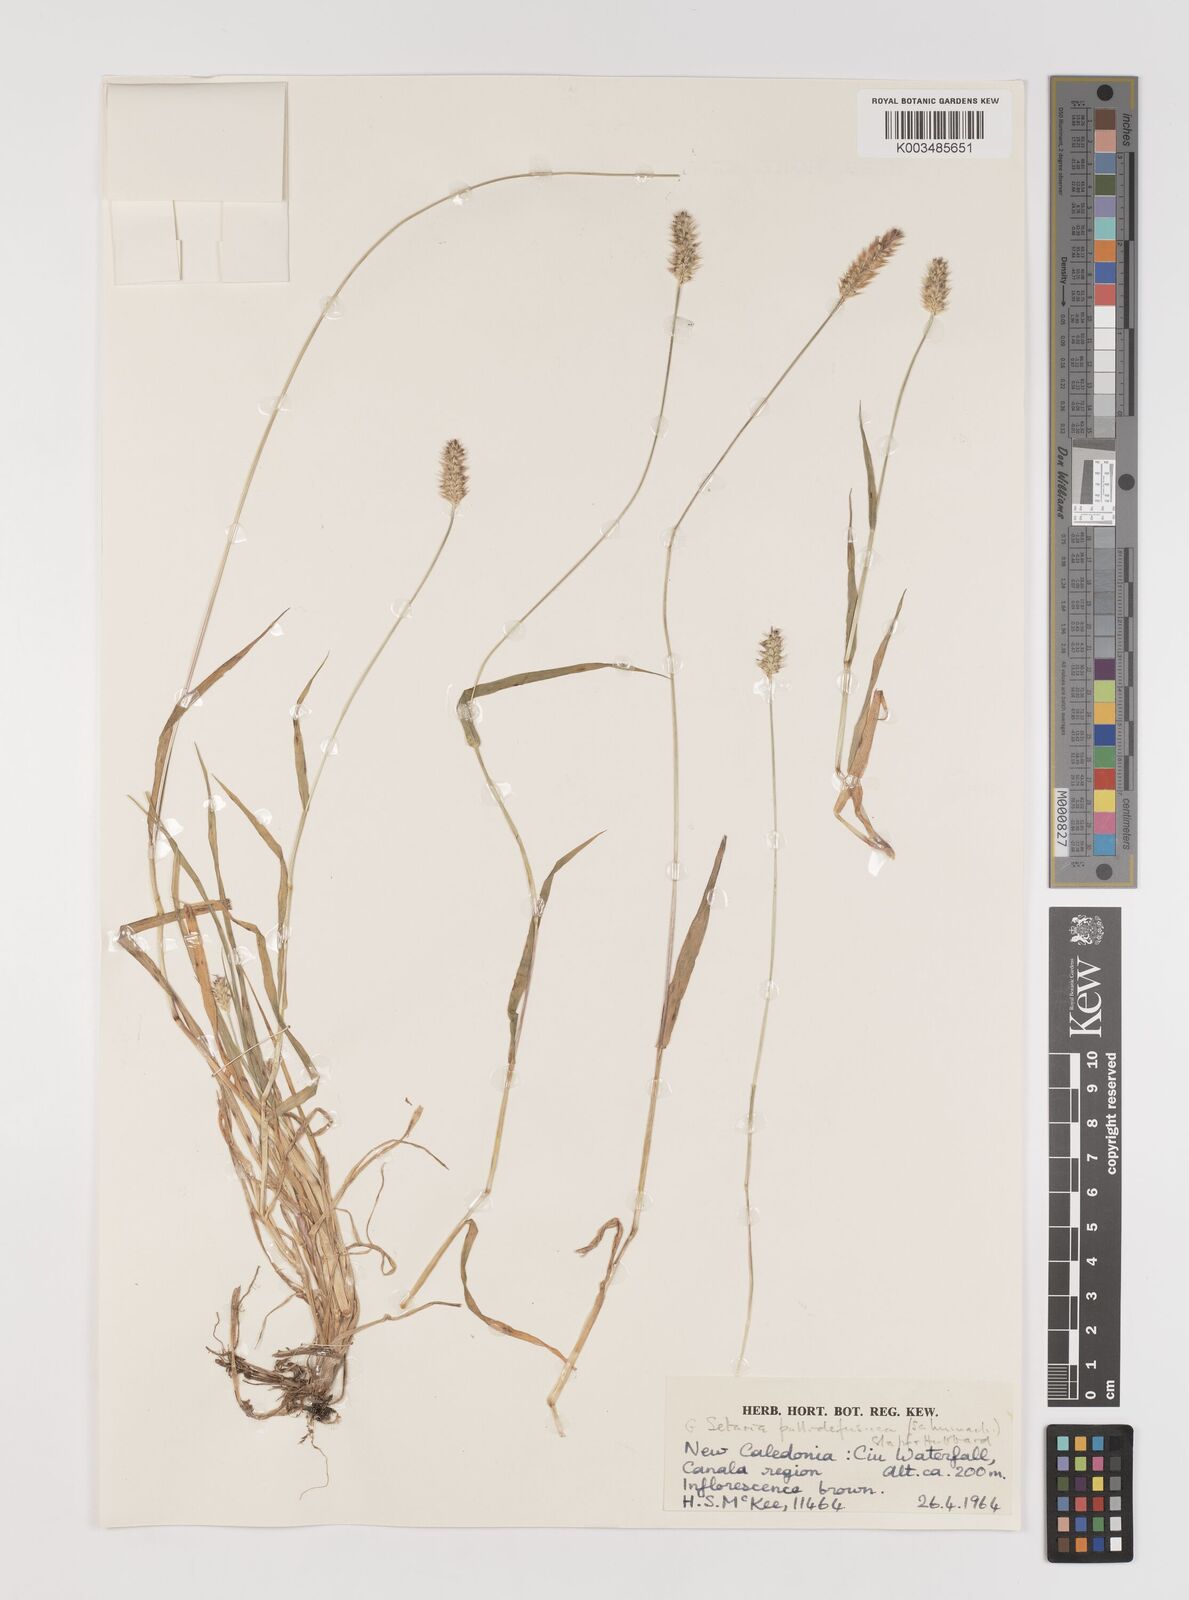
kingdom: Plantae
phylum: Tracheophyta
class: Liliopsida
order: Poales
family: Poaceae
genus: Setaria
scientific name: Setaria pumila
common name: Yellow bristle-grass
